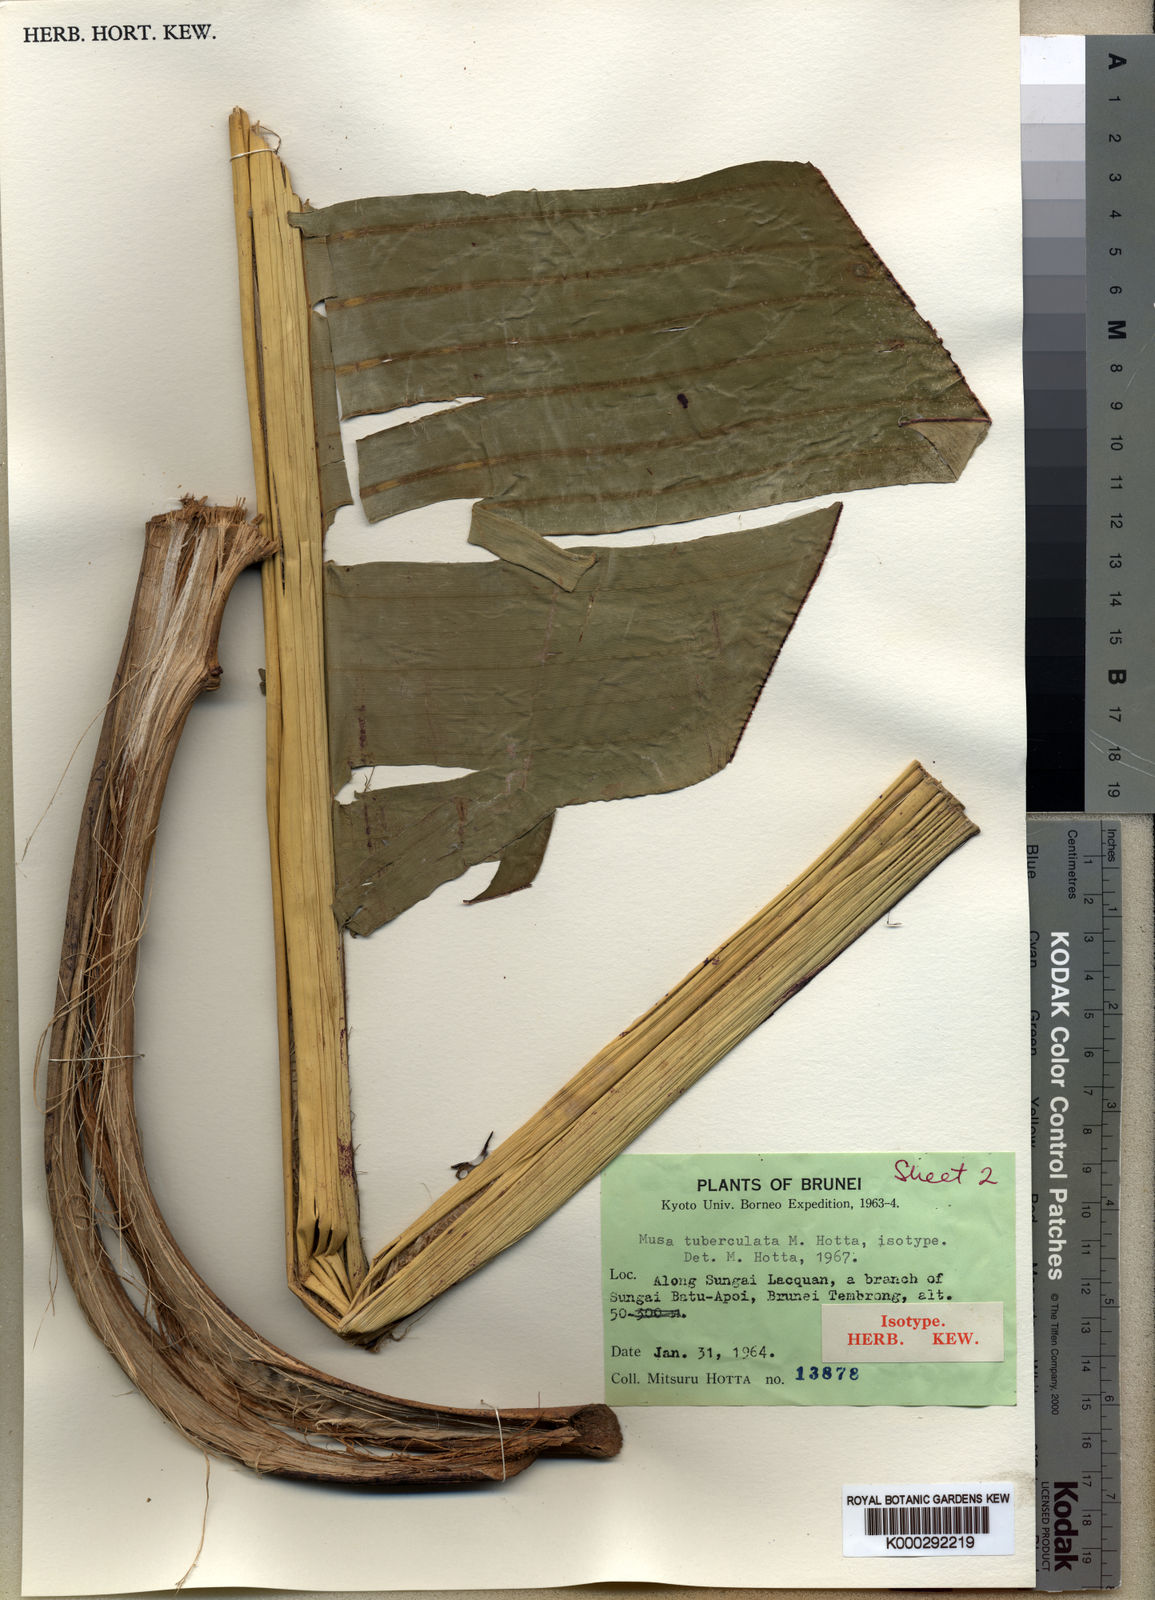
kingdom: Plantae
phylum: Tracheophyta
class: Liliopsida
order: Zingiberales
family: Musaceae
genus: Musa
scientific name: Musa tuberculata
